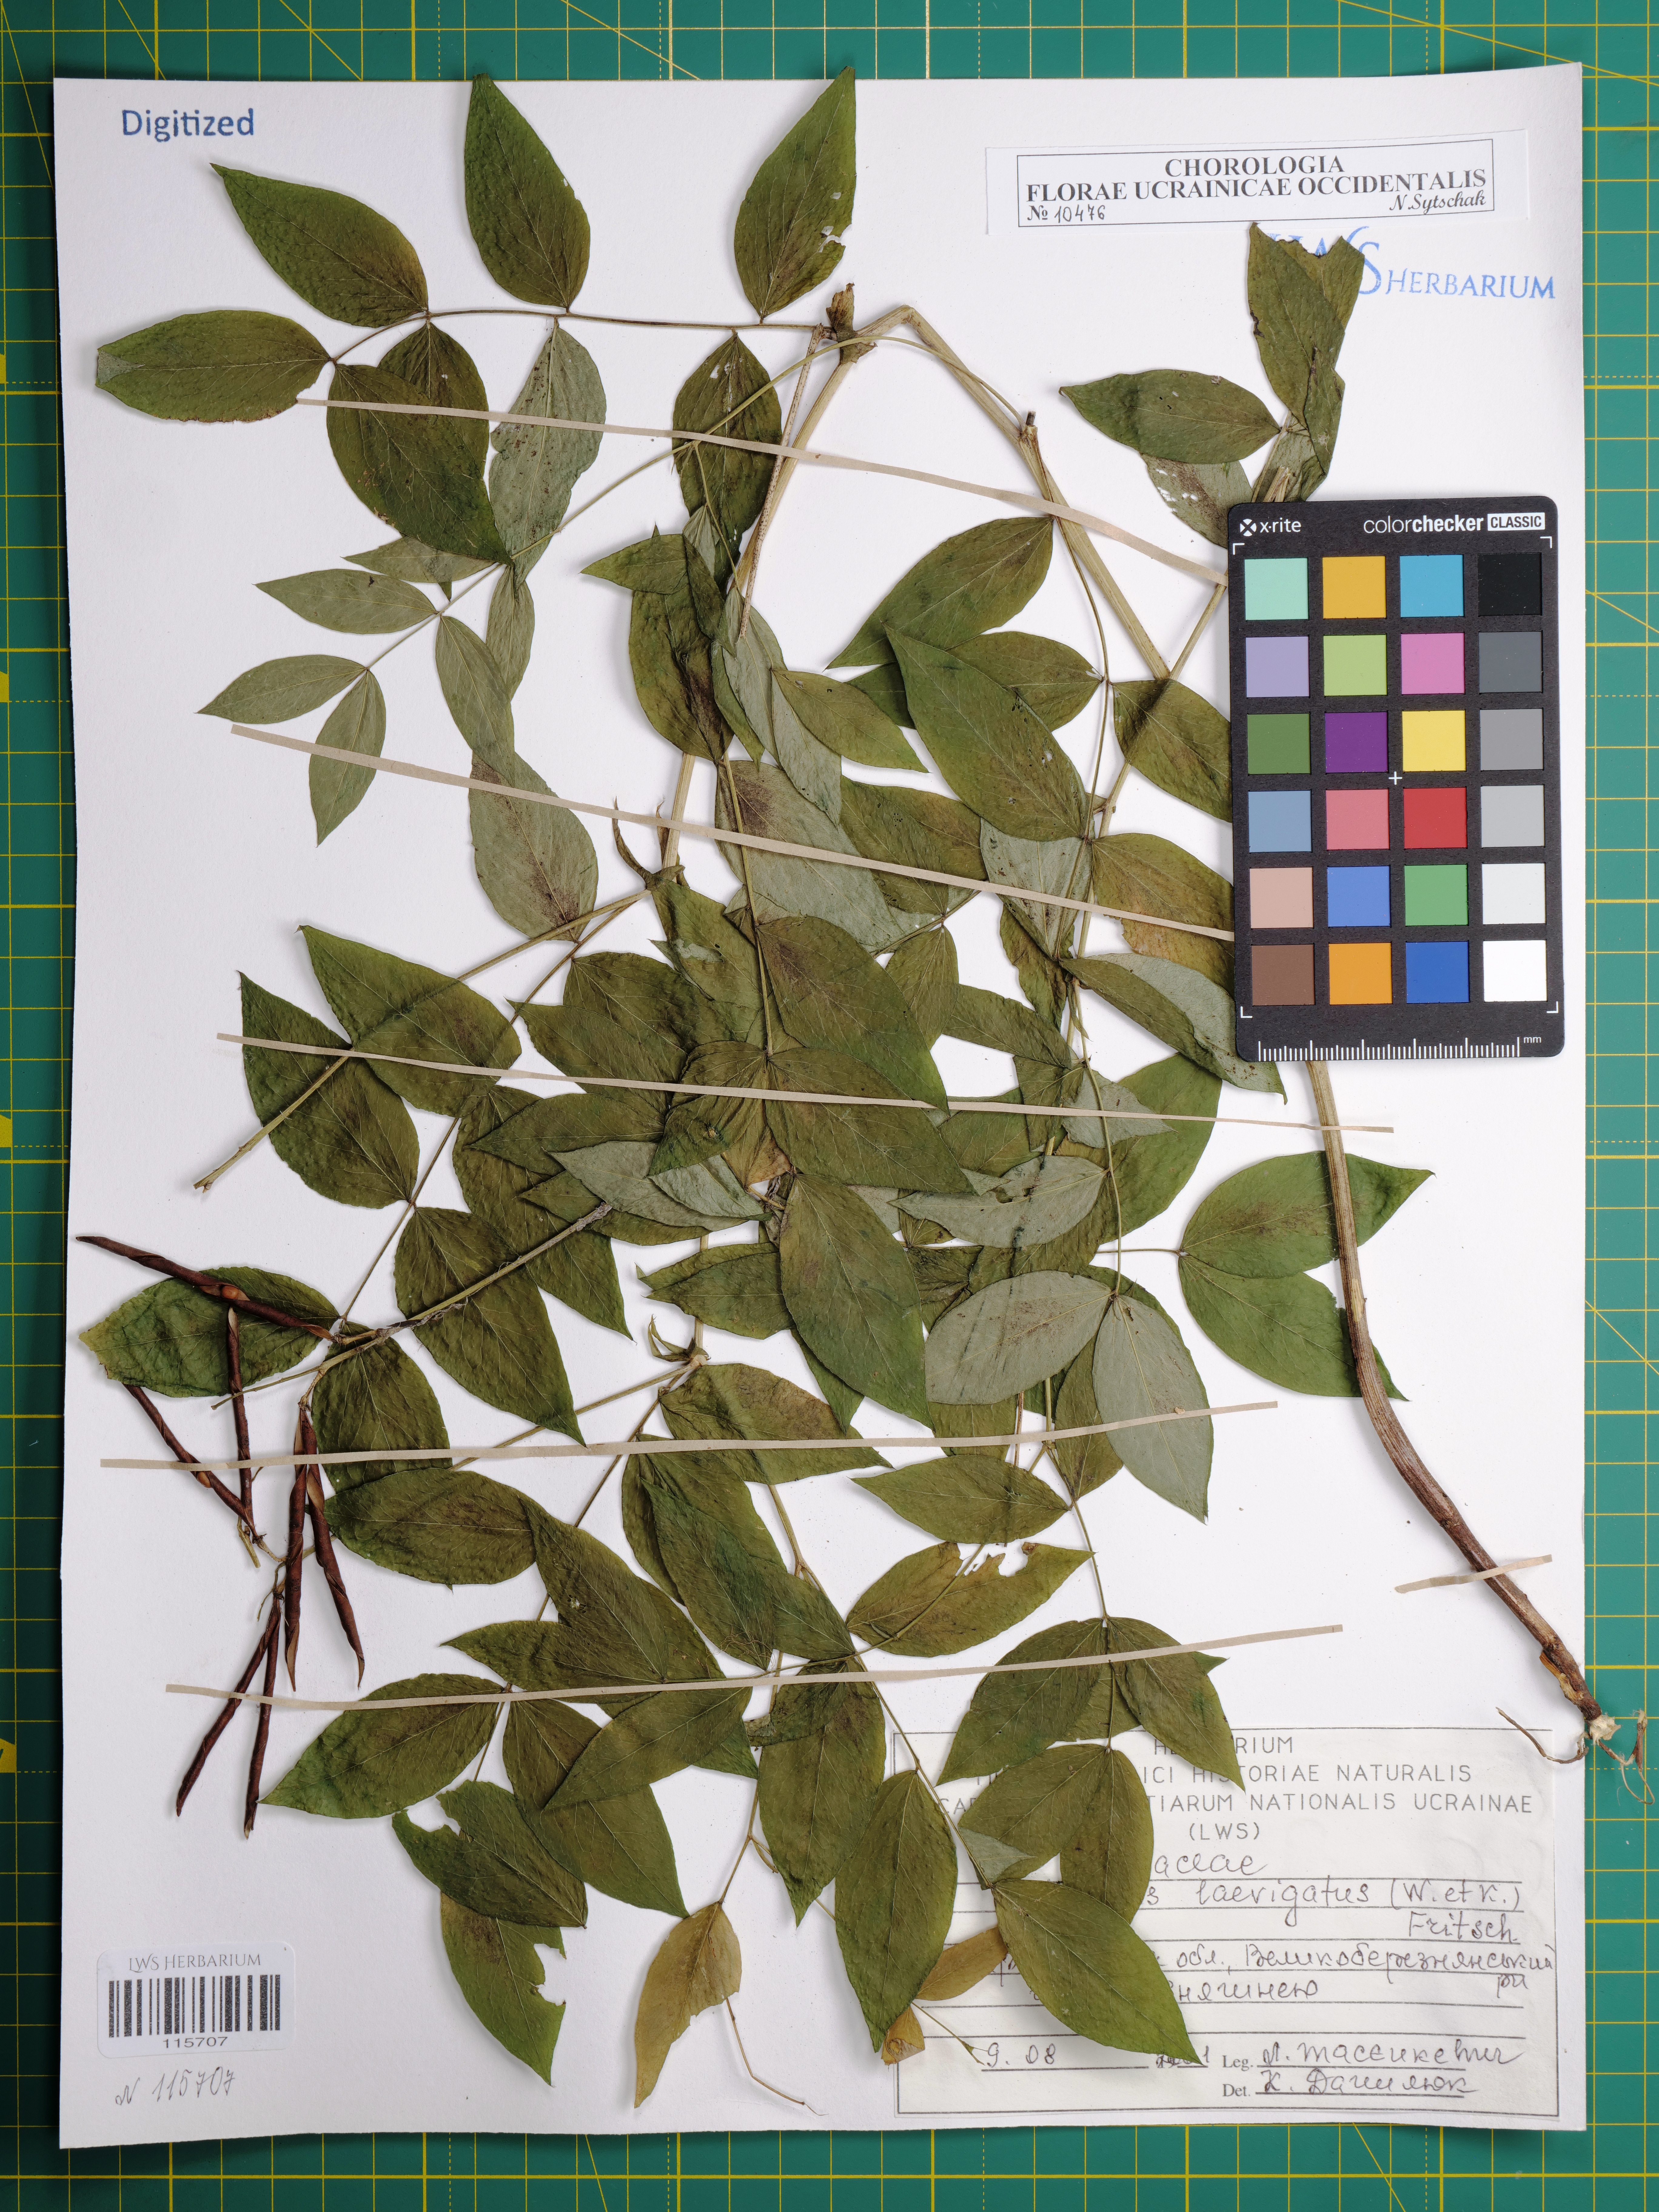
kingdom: Plantae
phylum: Tracheophyta
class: Magnoliopsida
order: Fabales
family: Fabaceae
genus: Lathyrus
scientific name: Lathyrus laevigatus
